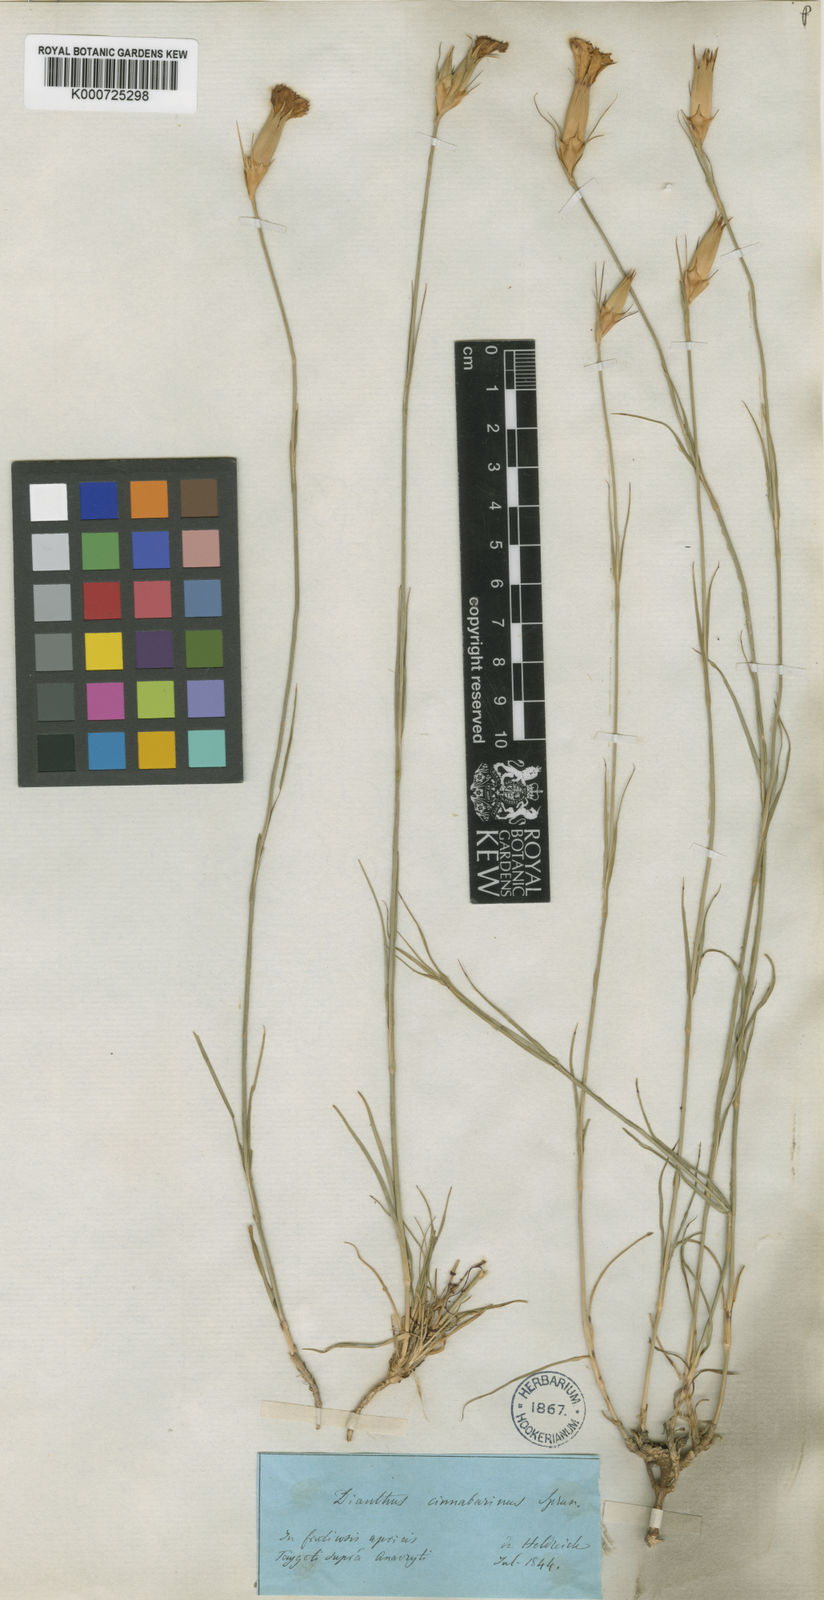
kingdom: Plantae
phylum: Tracheophyta
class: Magnoliopsida
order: Caryophyllales
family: Caryophyllaceae
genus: Dianthus
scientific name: Dianthus
